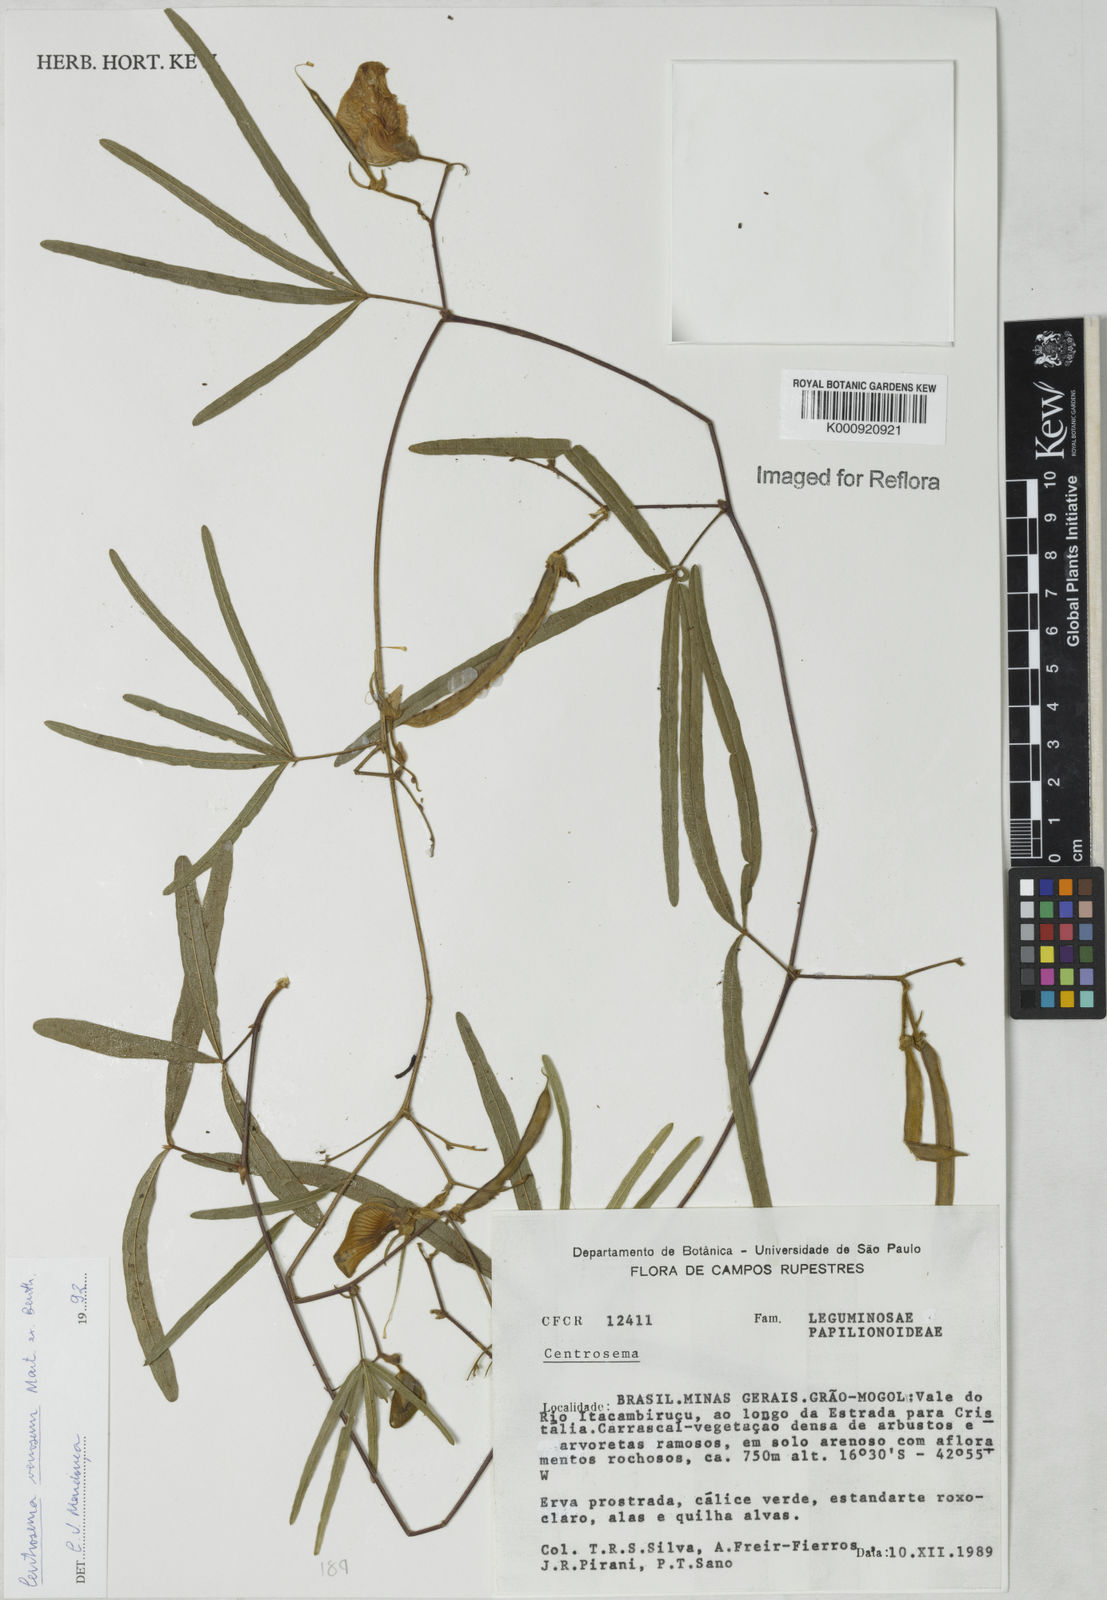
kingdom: Plantae
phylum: Tracheophyta
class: Magnoliopsida
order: Fabales
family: Fabaceae
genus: Centrosema
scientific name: Centrosema
